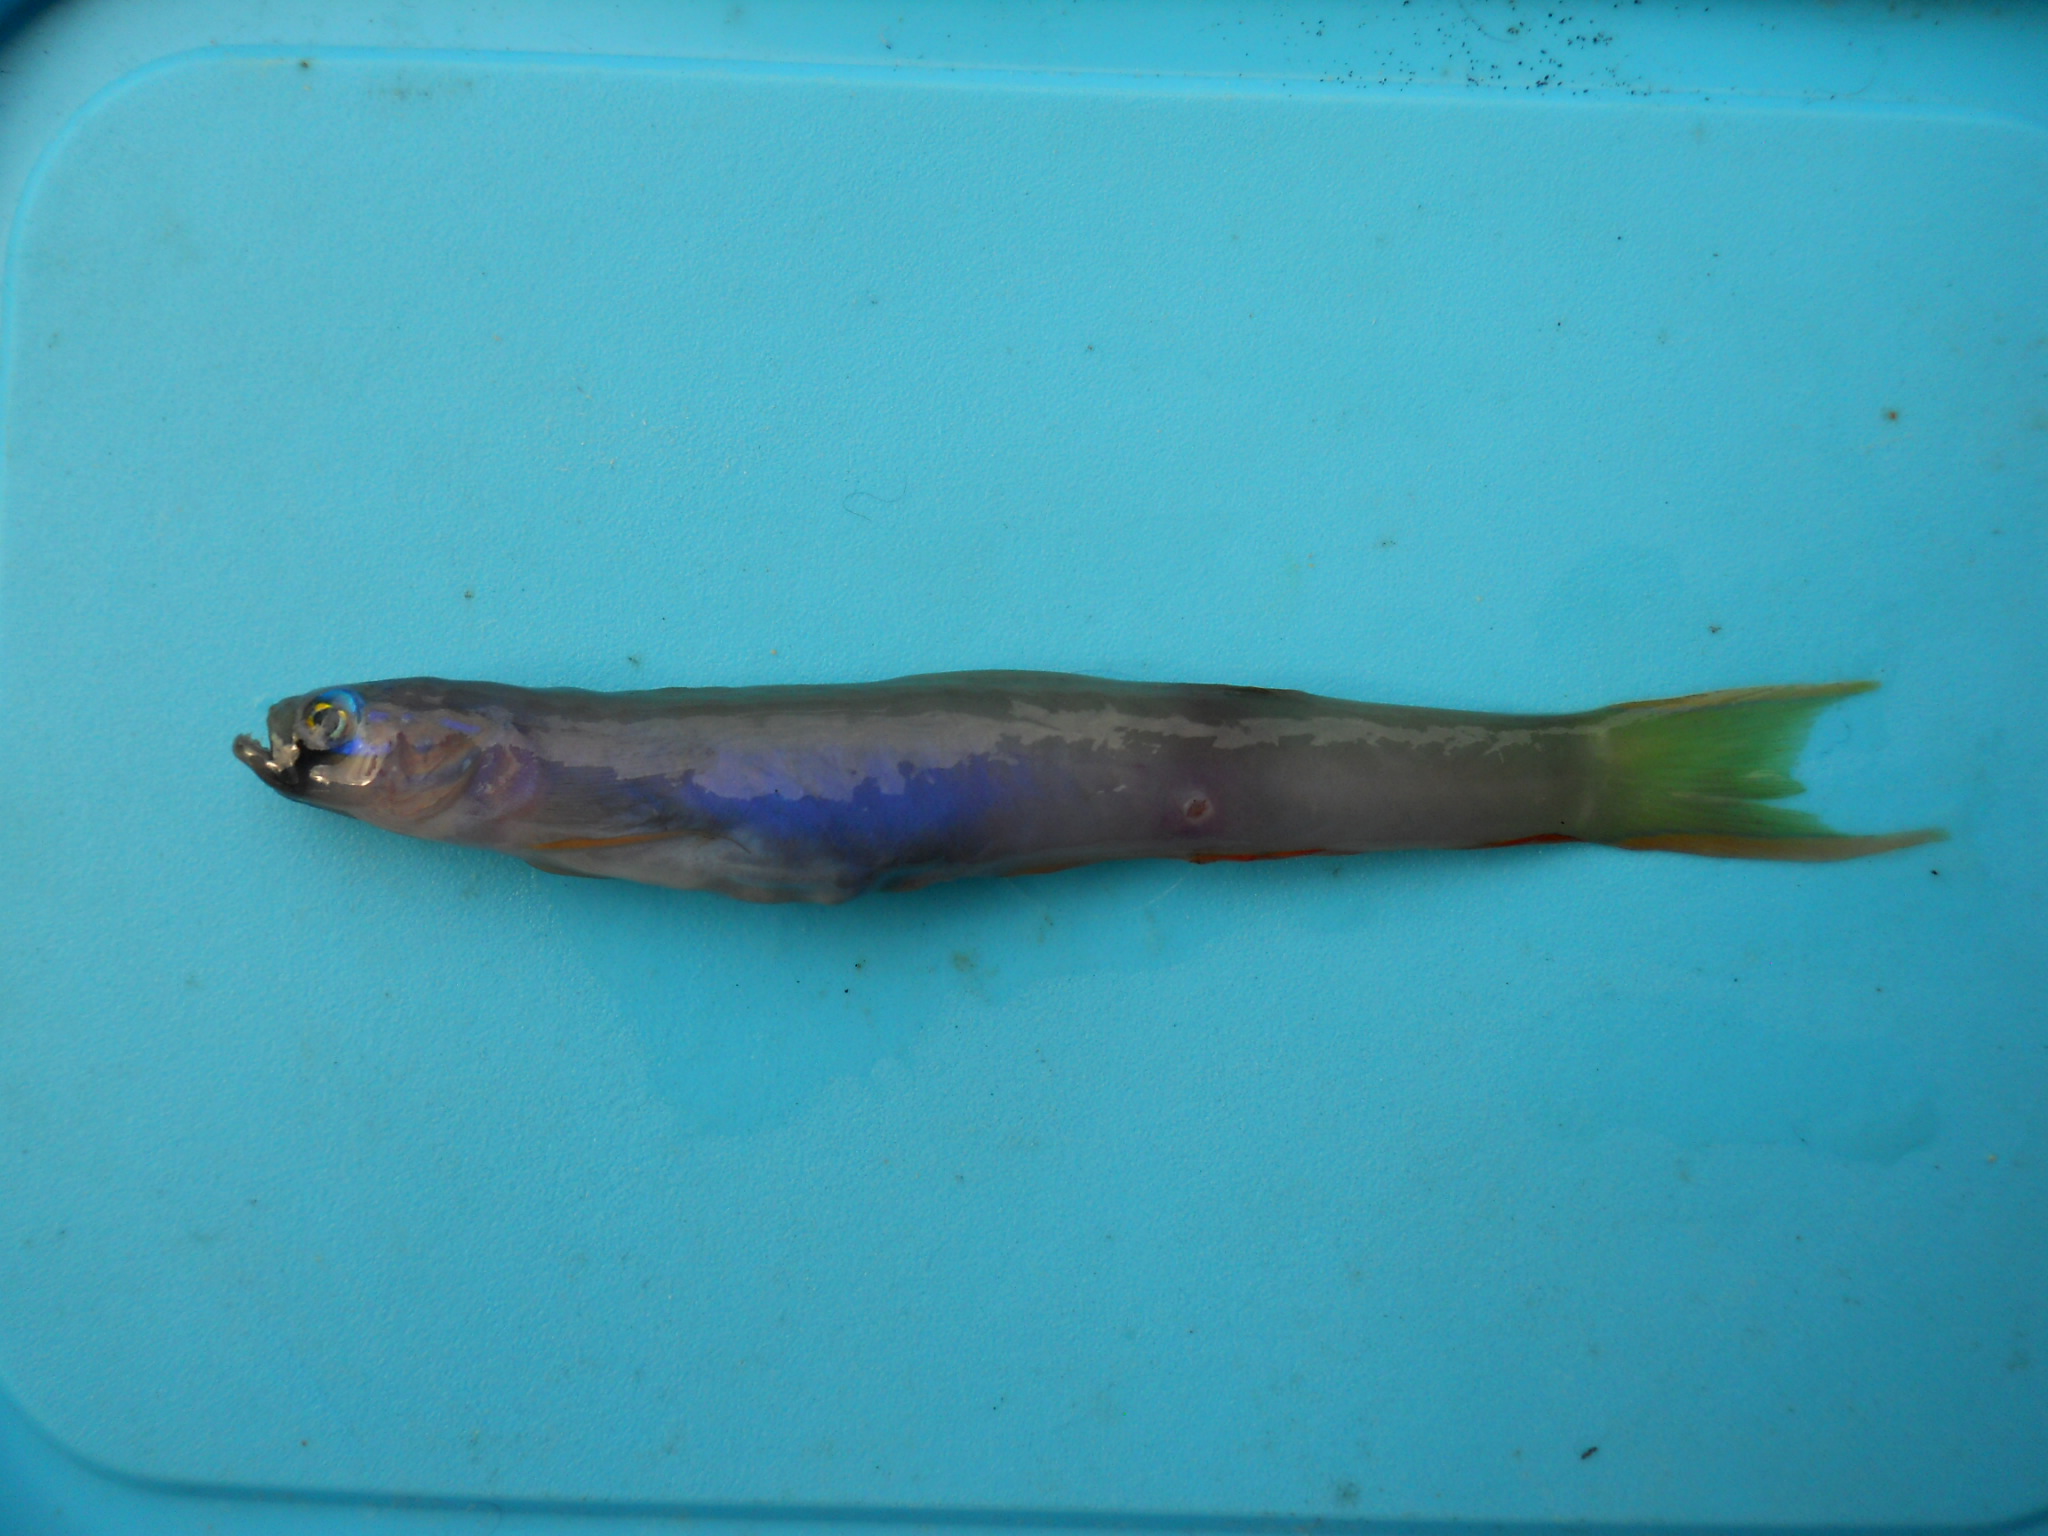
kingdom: Animalia
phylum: Chordata
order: Perciformes
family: Microdesmidae
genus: Ptereleotris
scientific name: Ptereleotris monoptera
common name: Lyre-tail dart-goby
